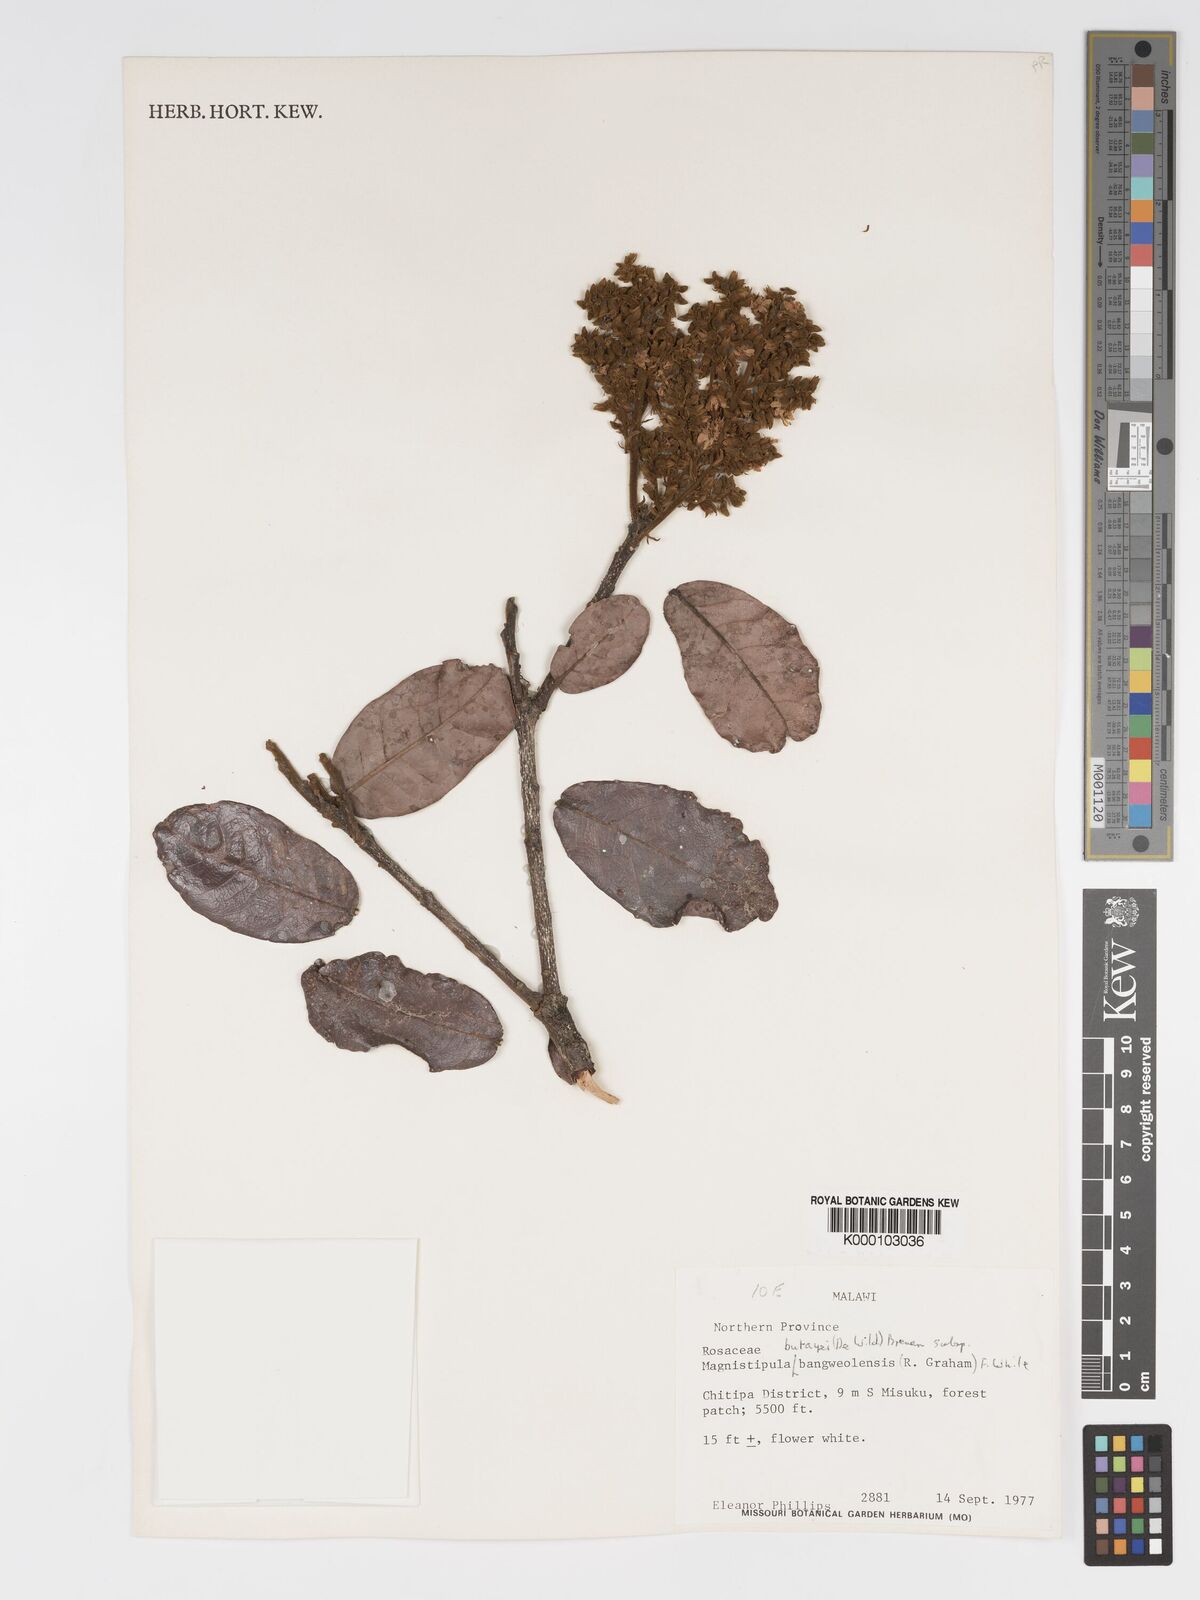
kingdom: Plantae
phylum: Tracheophyta
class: Magnoliopsida
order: Malpighiales
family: Chrysobalanaceae
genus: Magnistipula
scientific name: Magnistipula butayei
